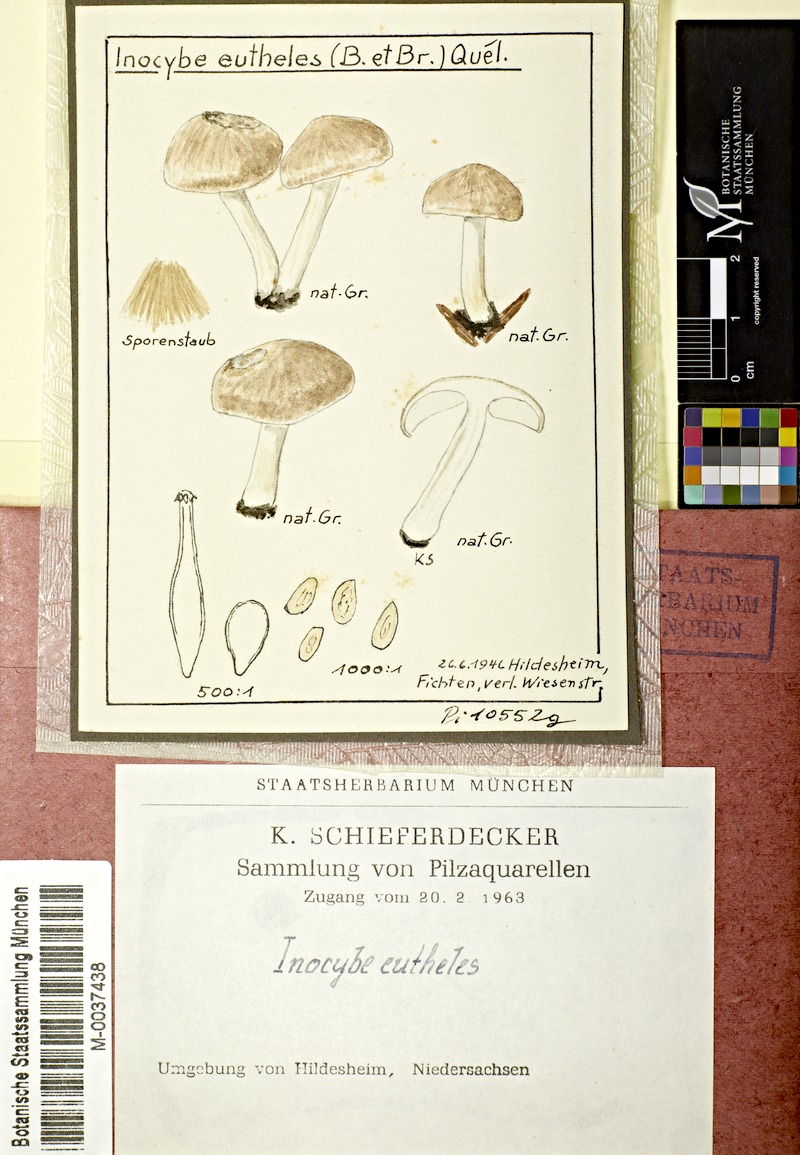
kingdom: Fungi
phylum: Basidiomycota
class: Agaricomycetes
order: Agaricales
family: Inocybaceae
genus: Inocybe
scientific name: Inocybe sindonia
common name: Beige fibrecap
